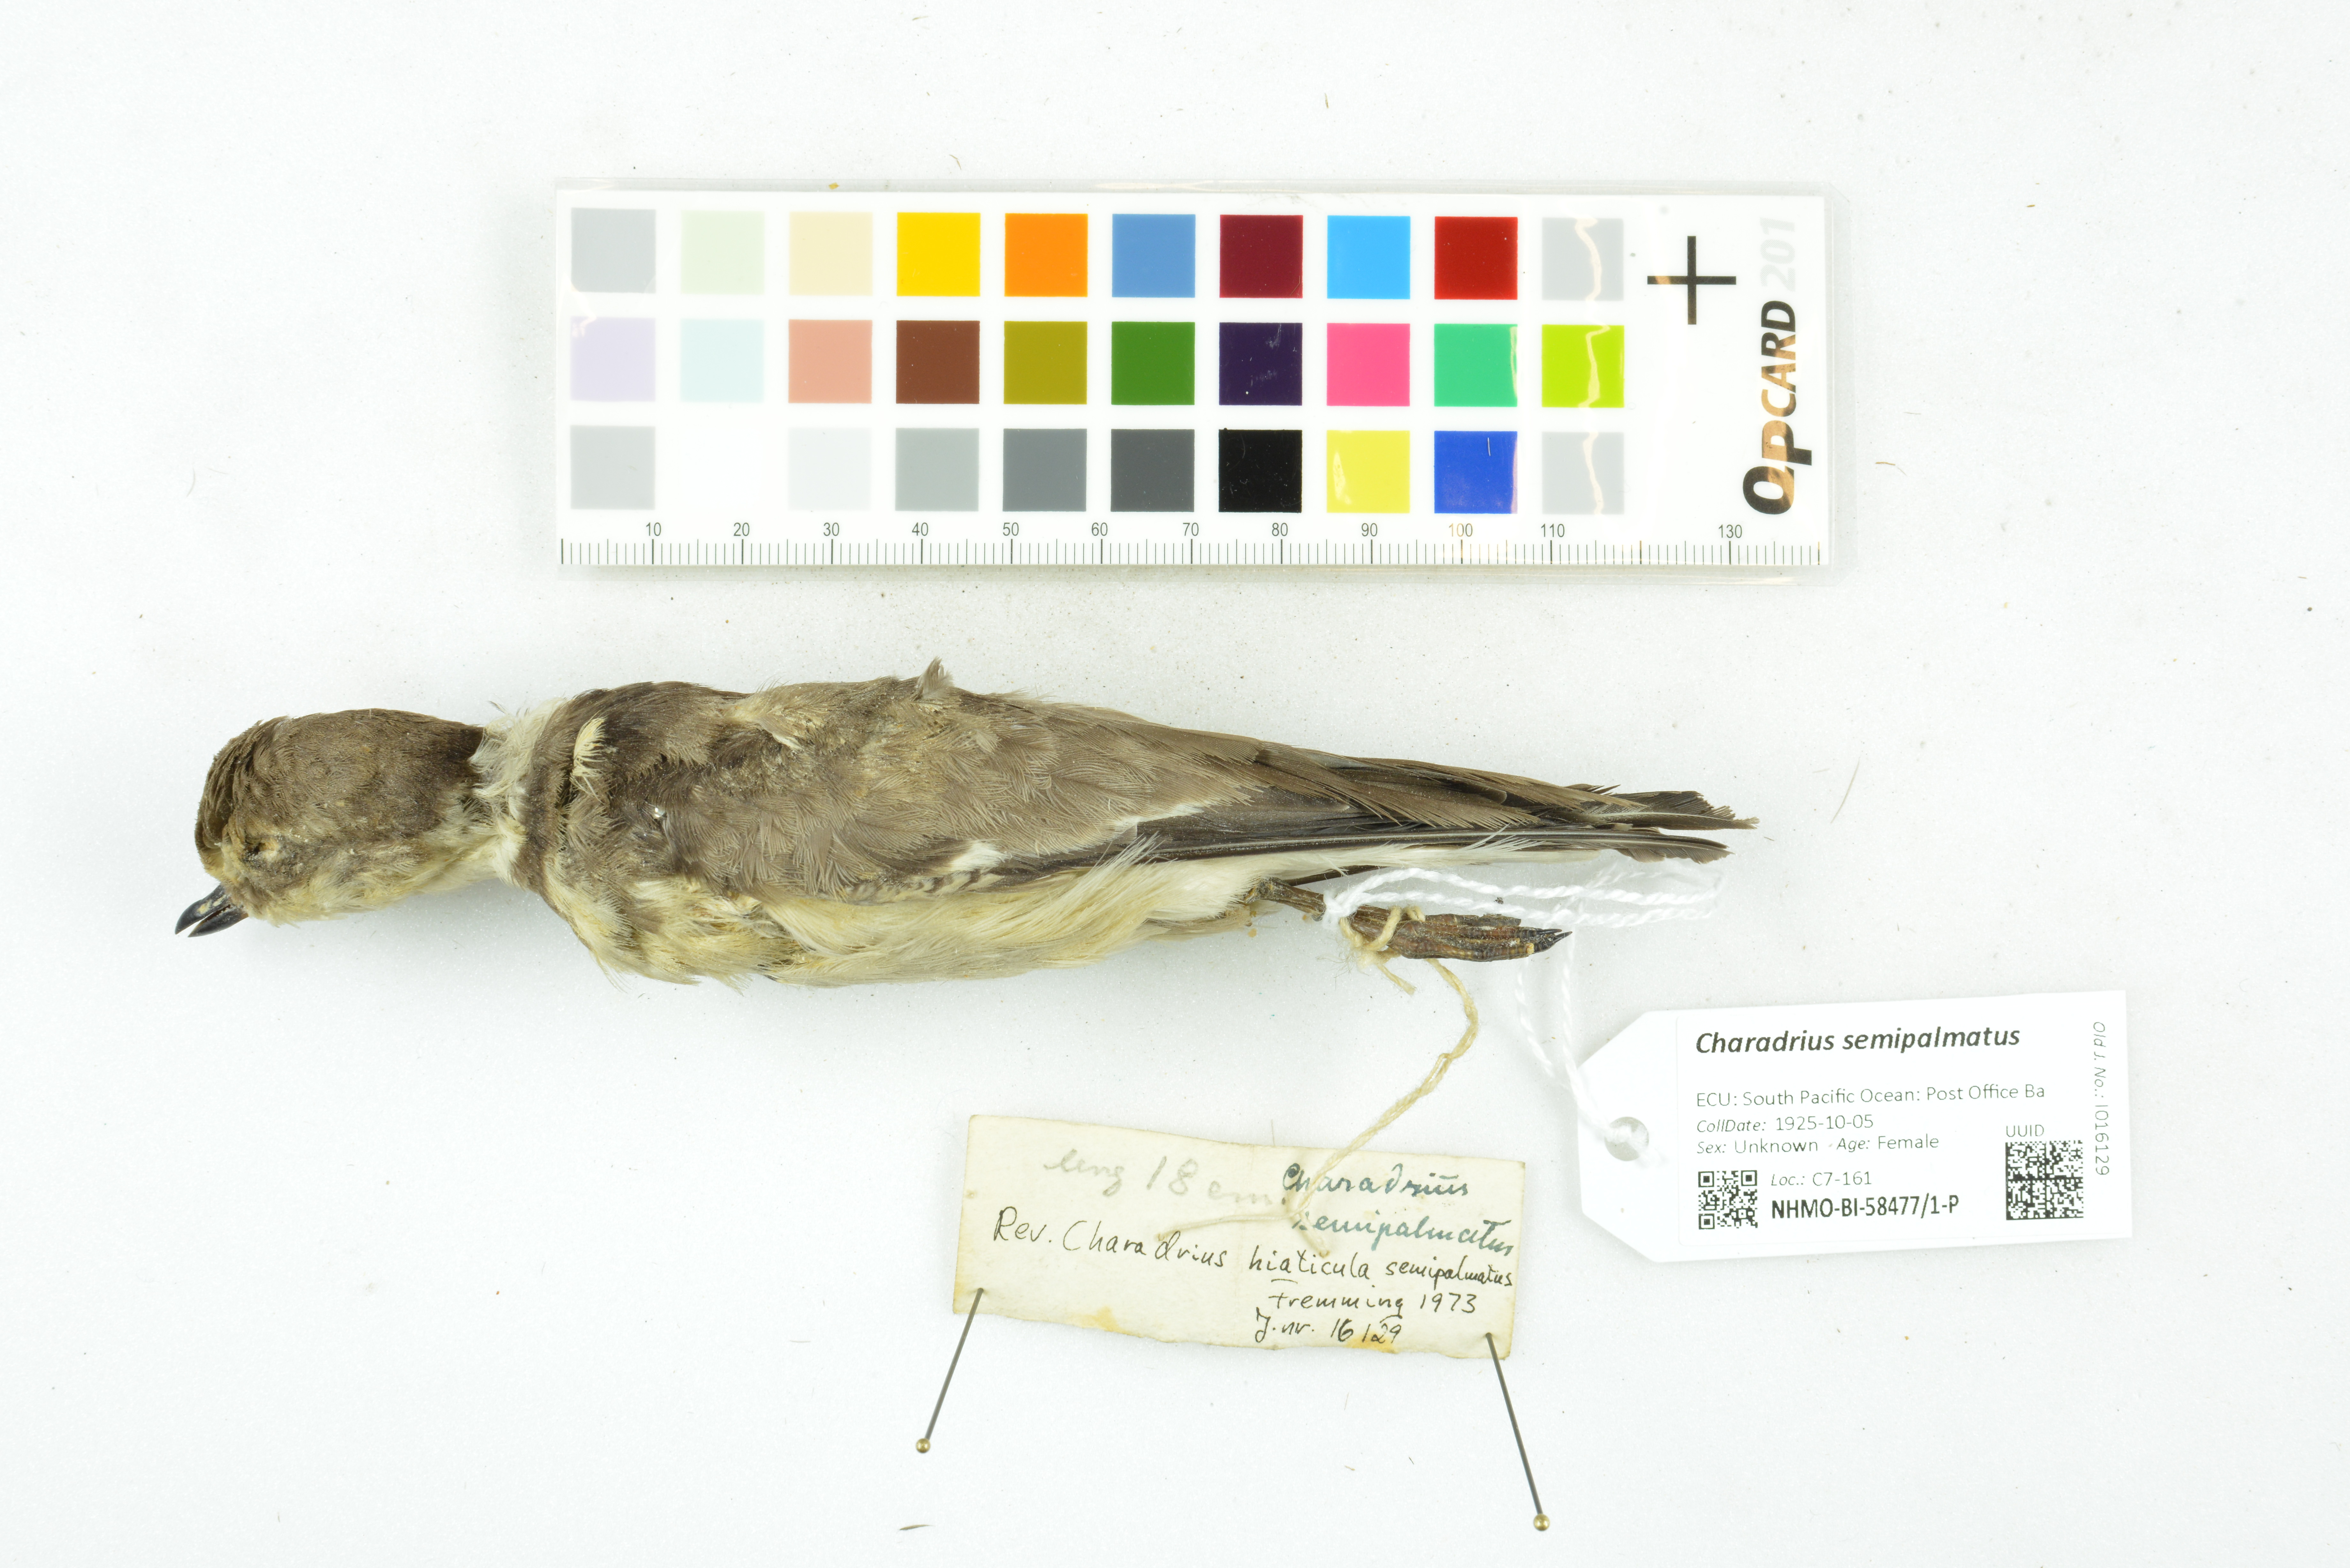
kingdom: Animalia
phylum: Chordata
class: Aves
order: Charadriiformes
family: Charadriidae
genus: Charadrius
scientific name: Charadrius semipalmatus
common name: Semipalmated plover
